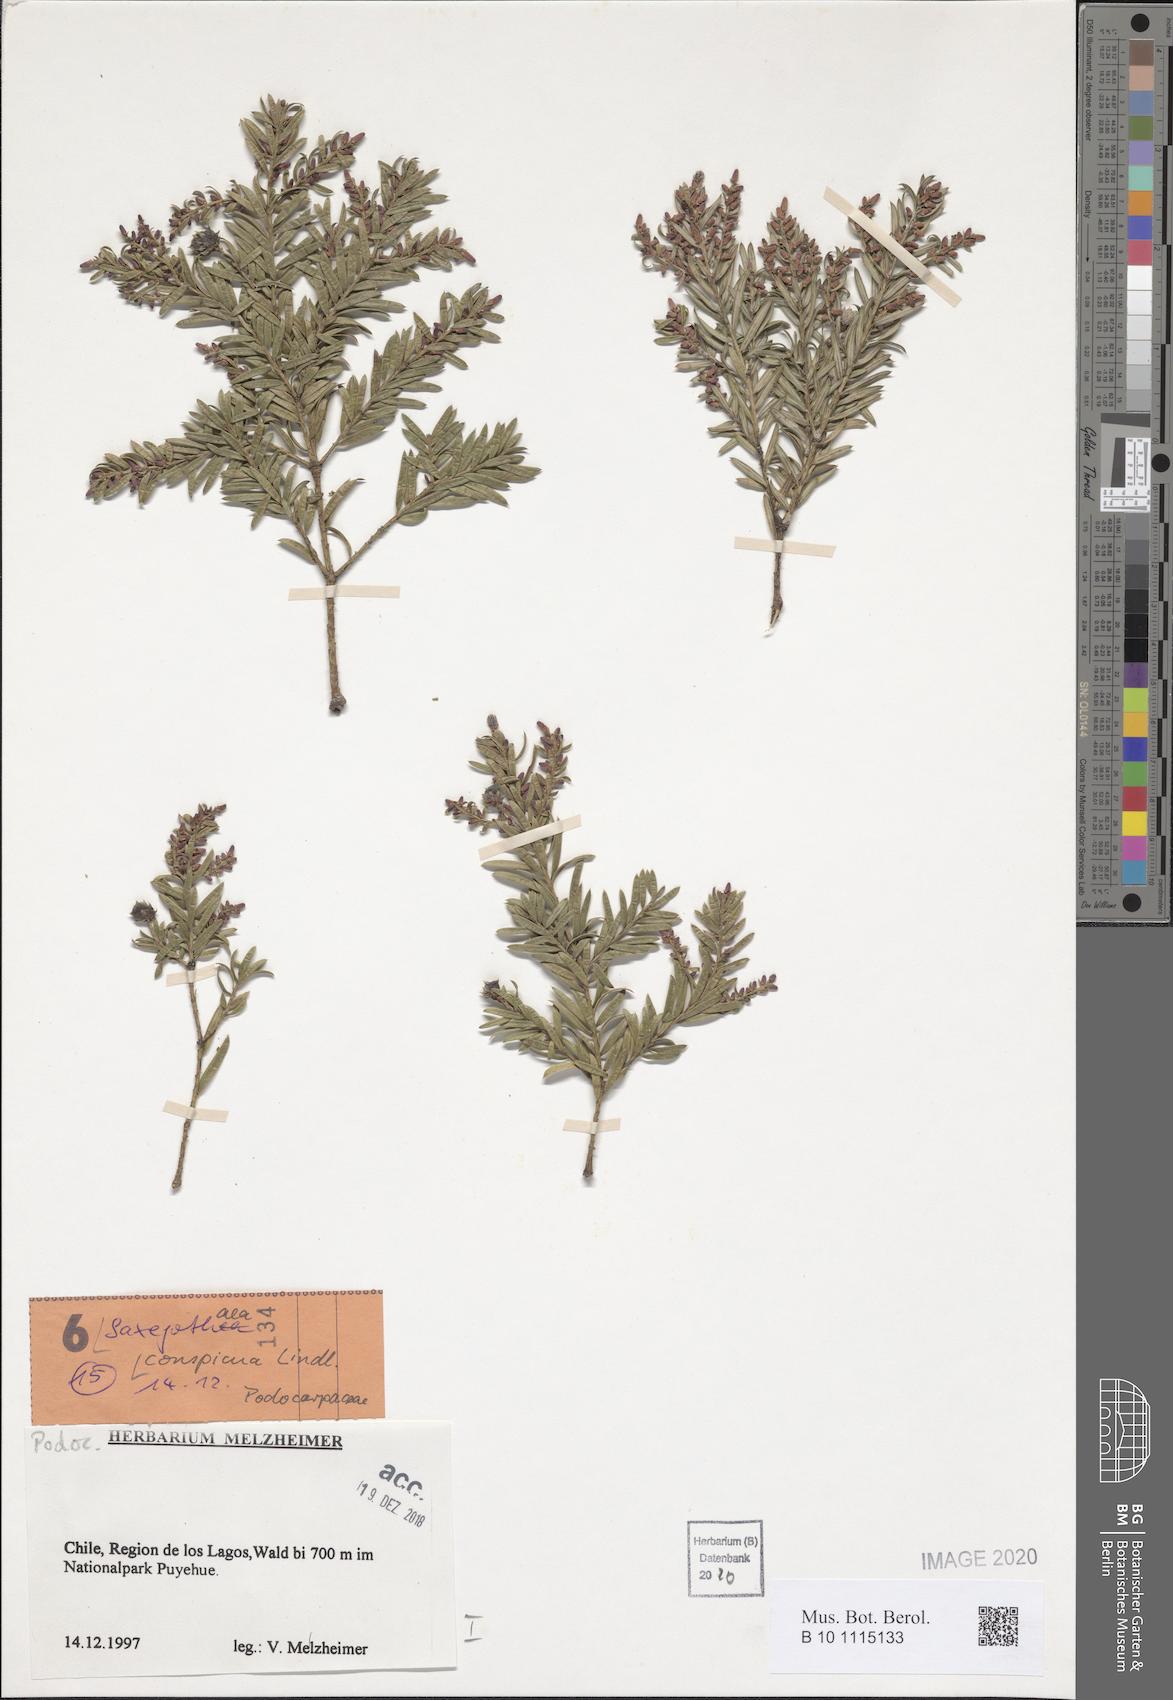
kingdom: Plantae
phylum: Tracheophyta
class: Pinopsida
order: Pinales
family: Podocarpaceae
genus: Saxegothaea
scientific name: Saxegothaea conspicua
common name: Prince albert's yew
